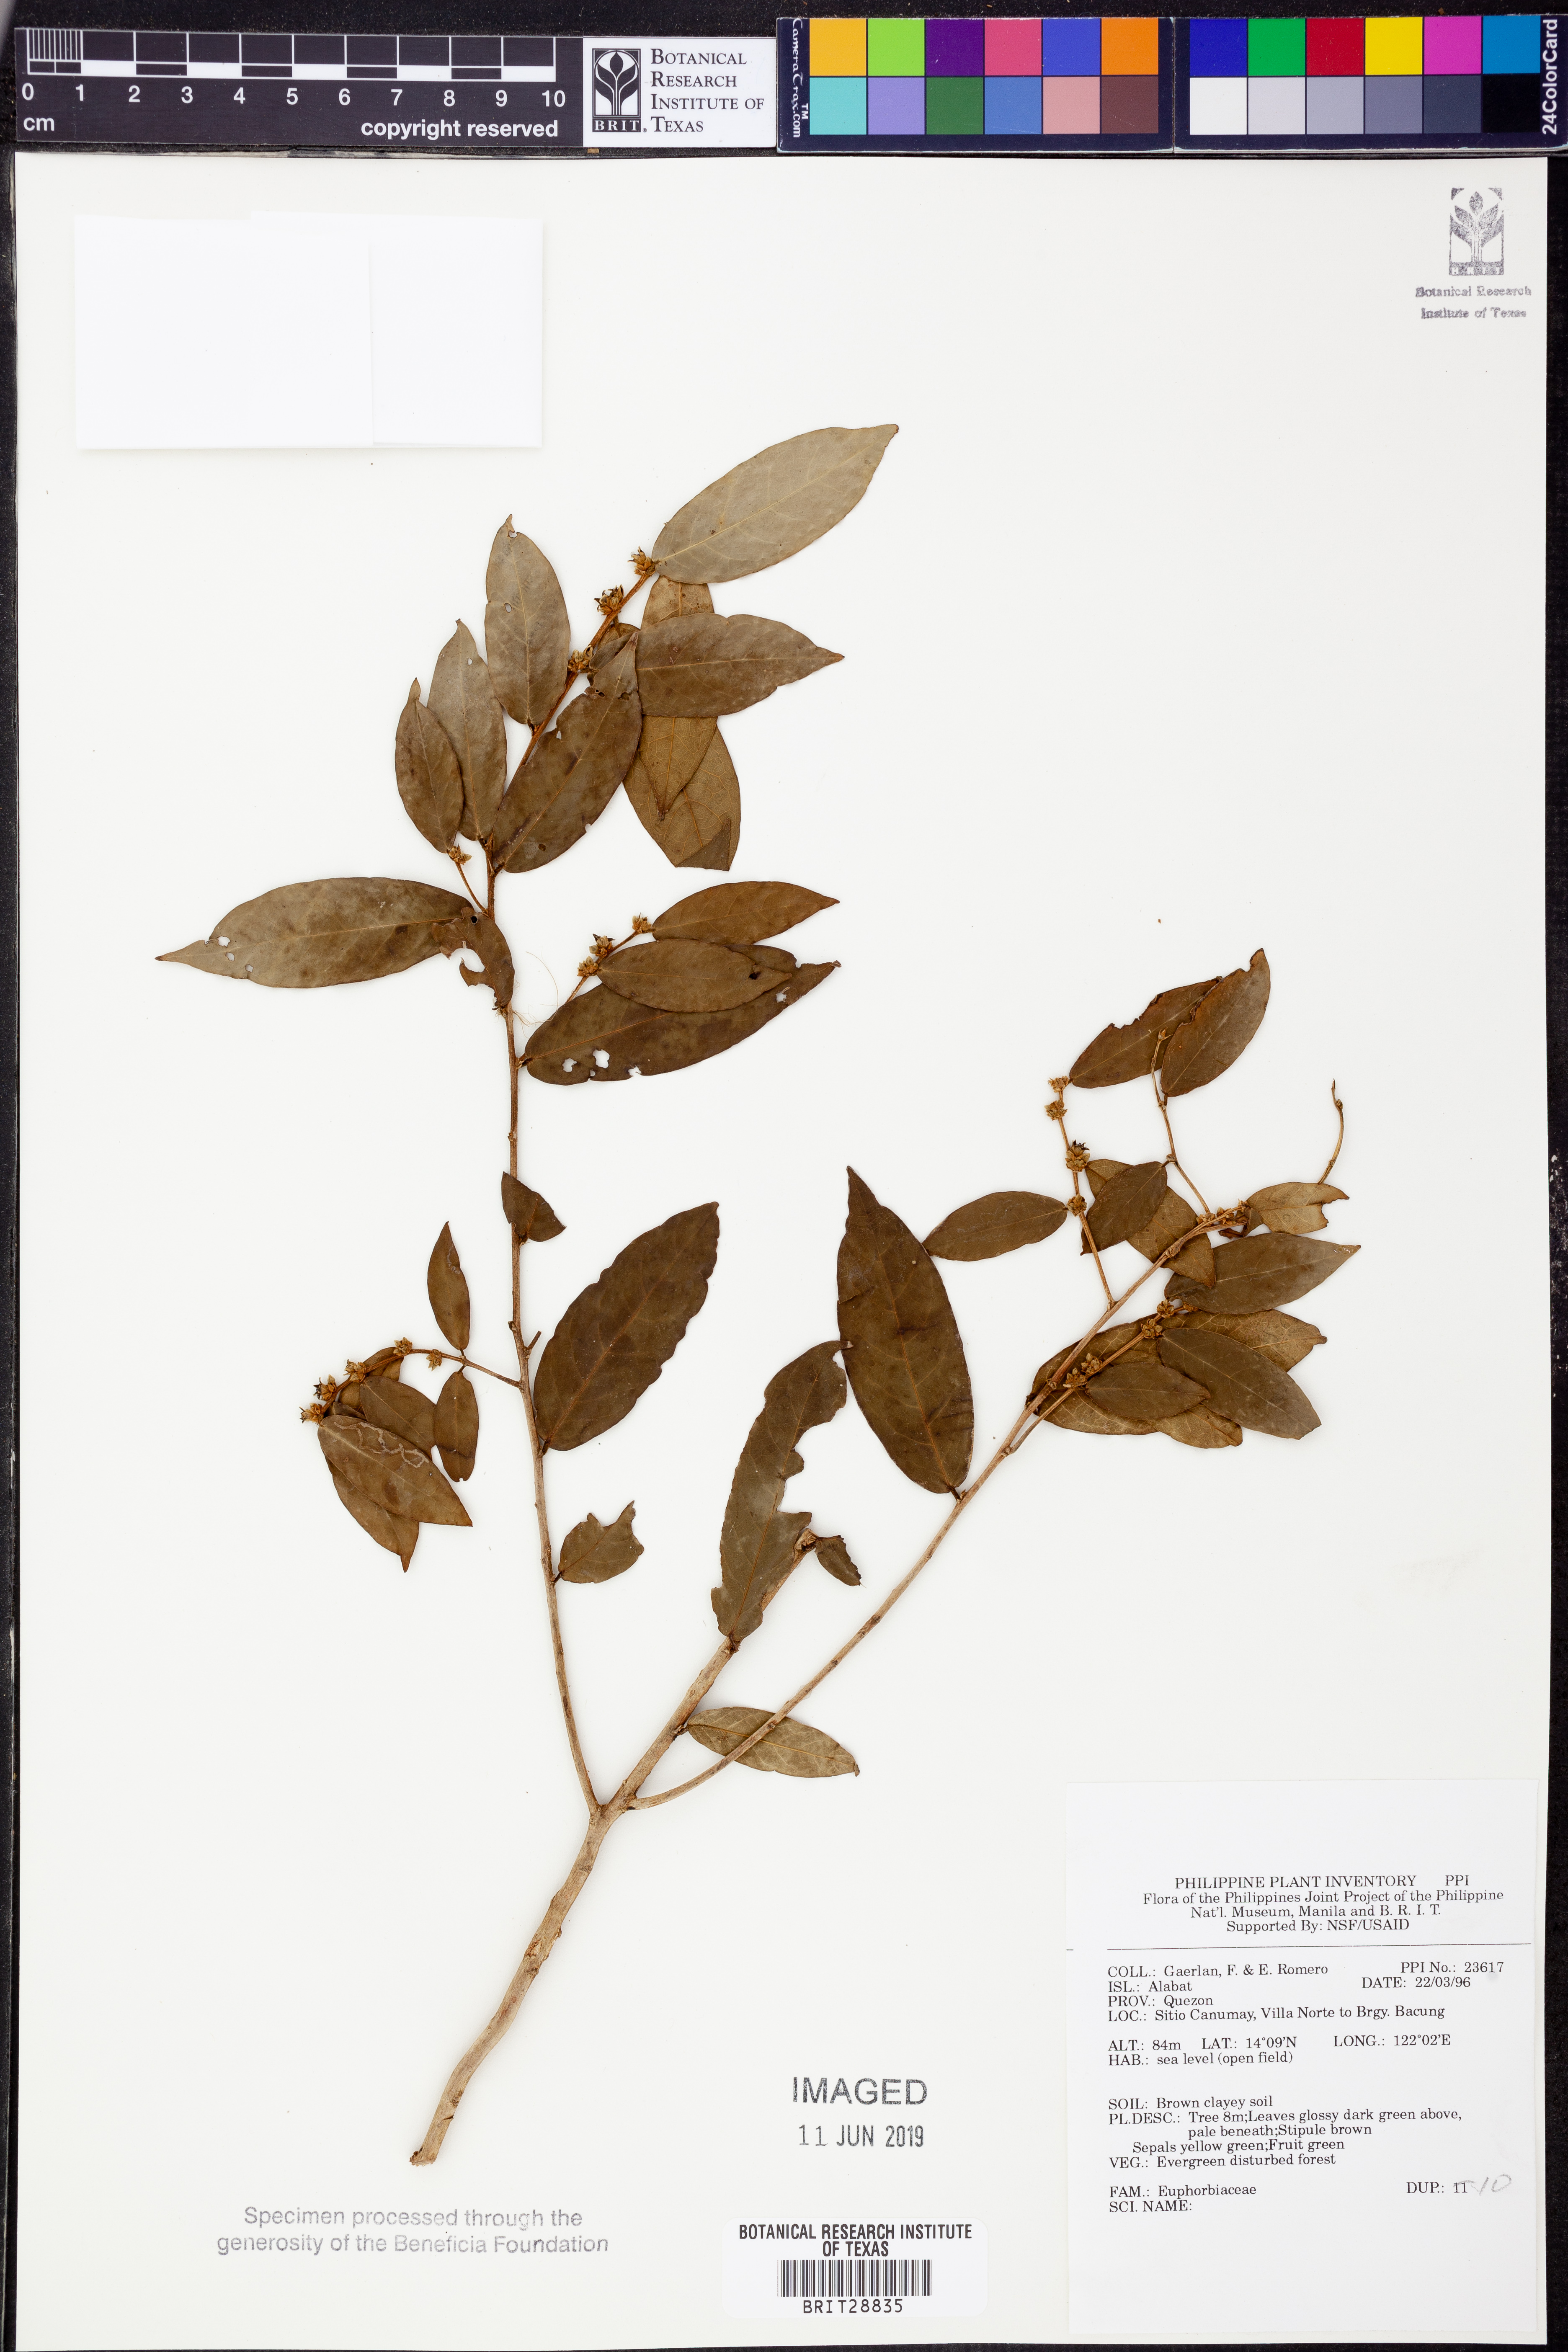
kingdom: Plantae
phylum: Tracheophyta
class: Magnoliopsida
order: Malpighiales
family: Euphorbiaceae
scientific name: Euphorbiaceae
